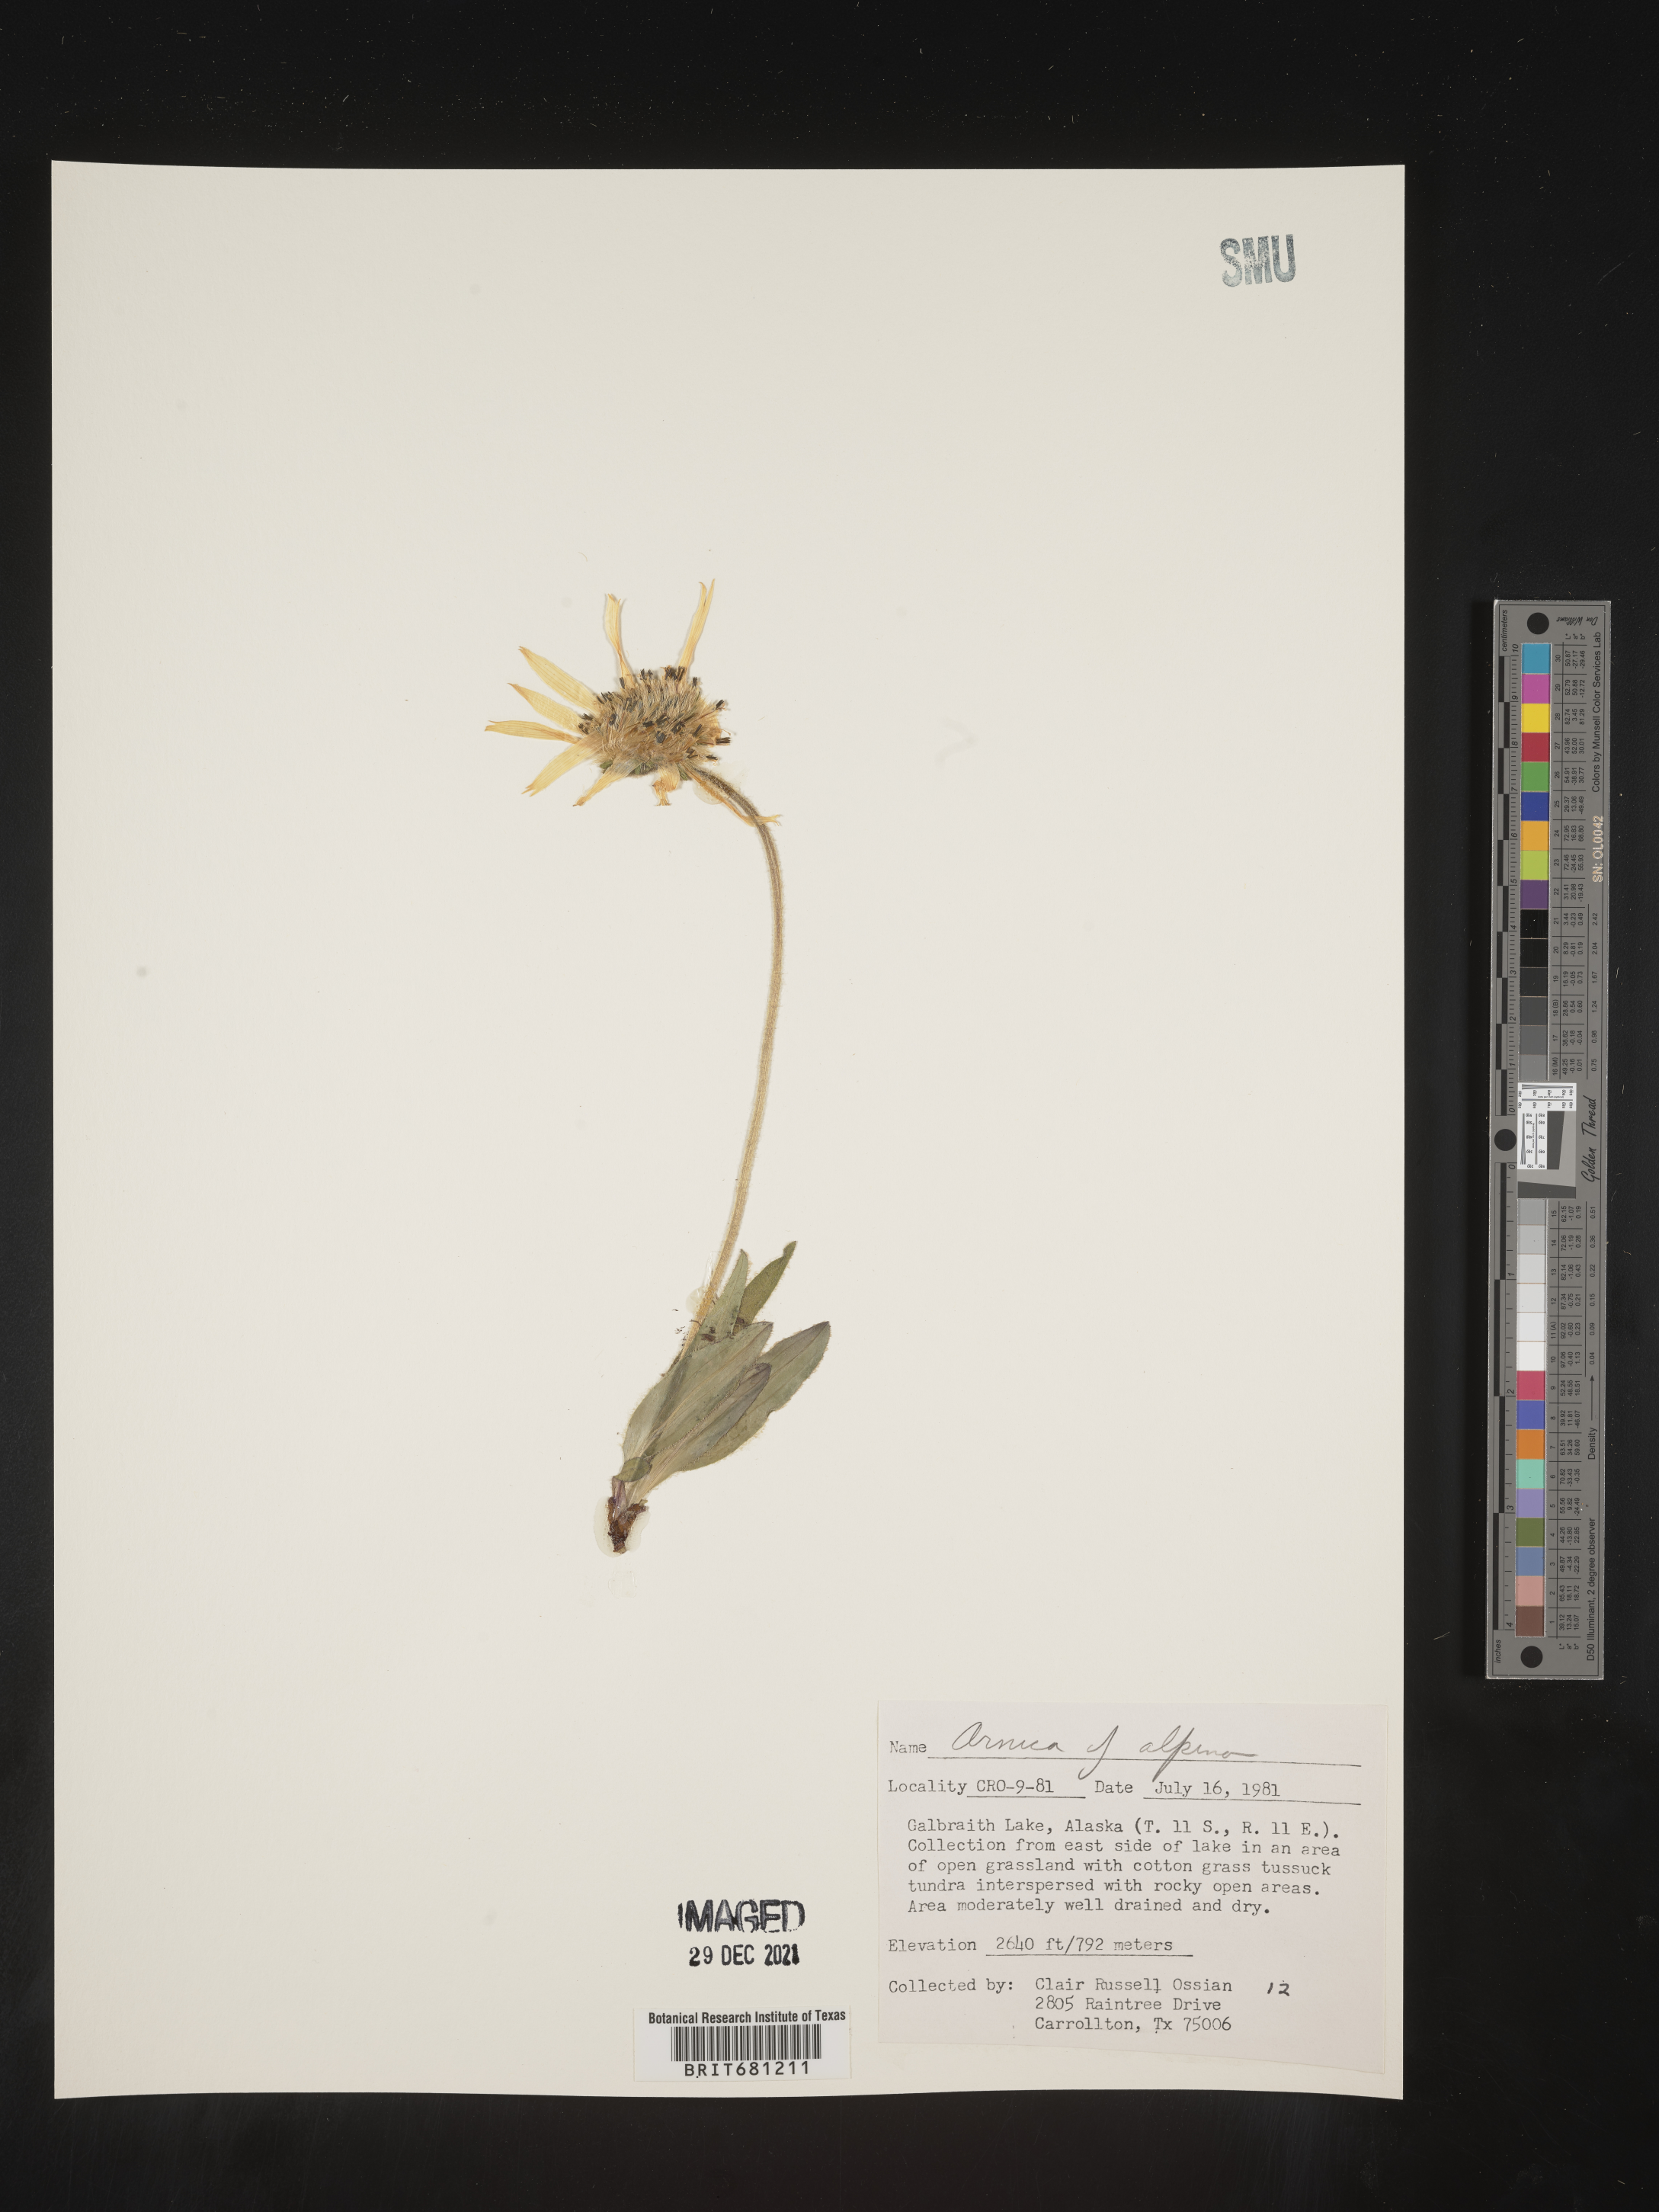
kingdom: Plantae
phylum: Tracheophyta
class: Magnoliopsida
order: Asterales
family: Asteraceae
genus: Arnica
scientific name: Arnica angustifolia
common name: Arctic arnica
